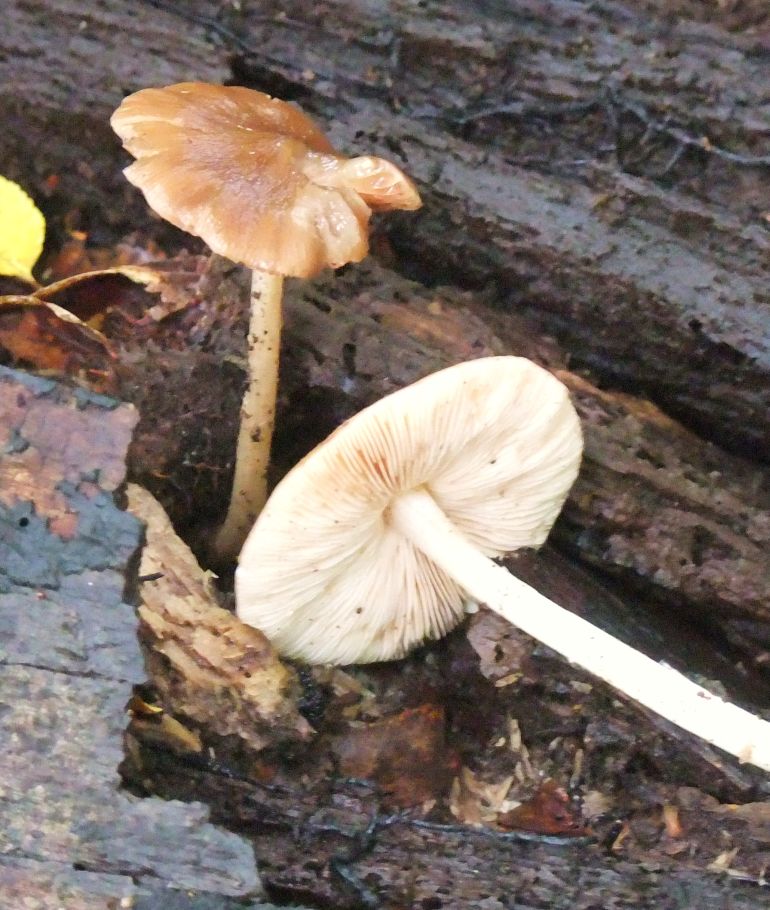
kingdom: Fungi
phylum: Basidiomycota
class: Agaricomycetes
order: Agaricales
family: Pluteaceae
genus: Pluteus
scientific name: Pluteus phlebophorus
